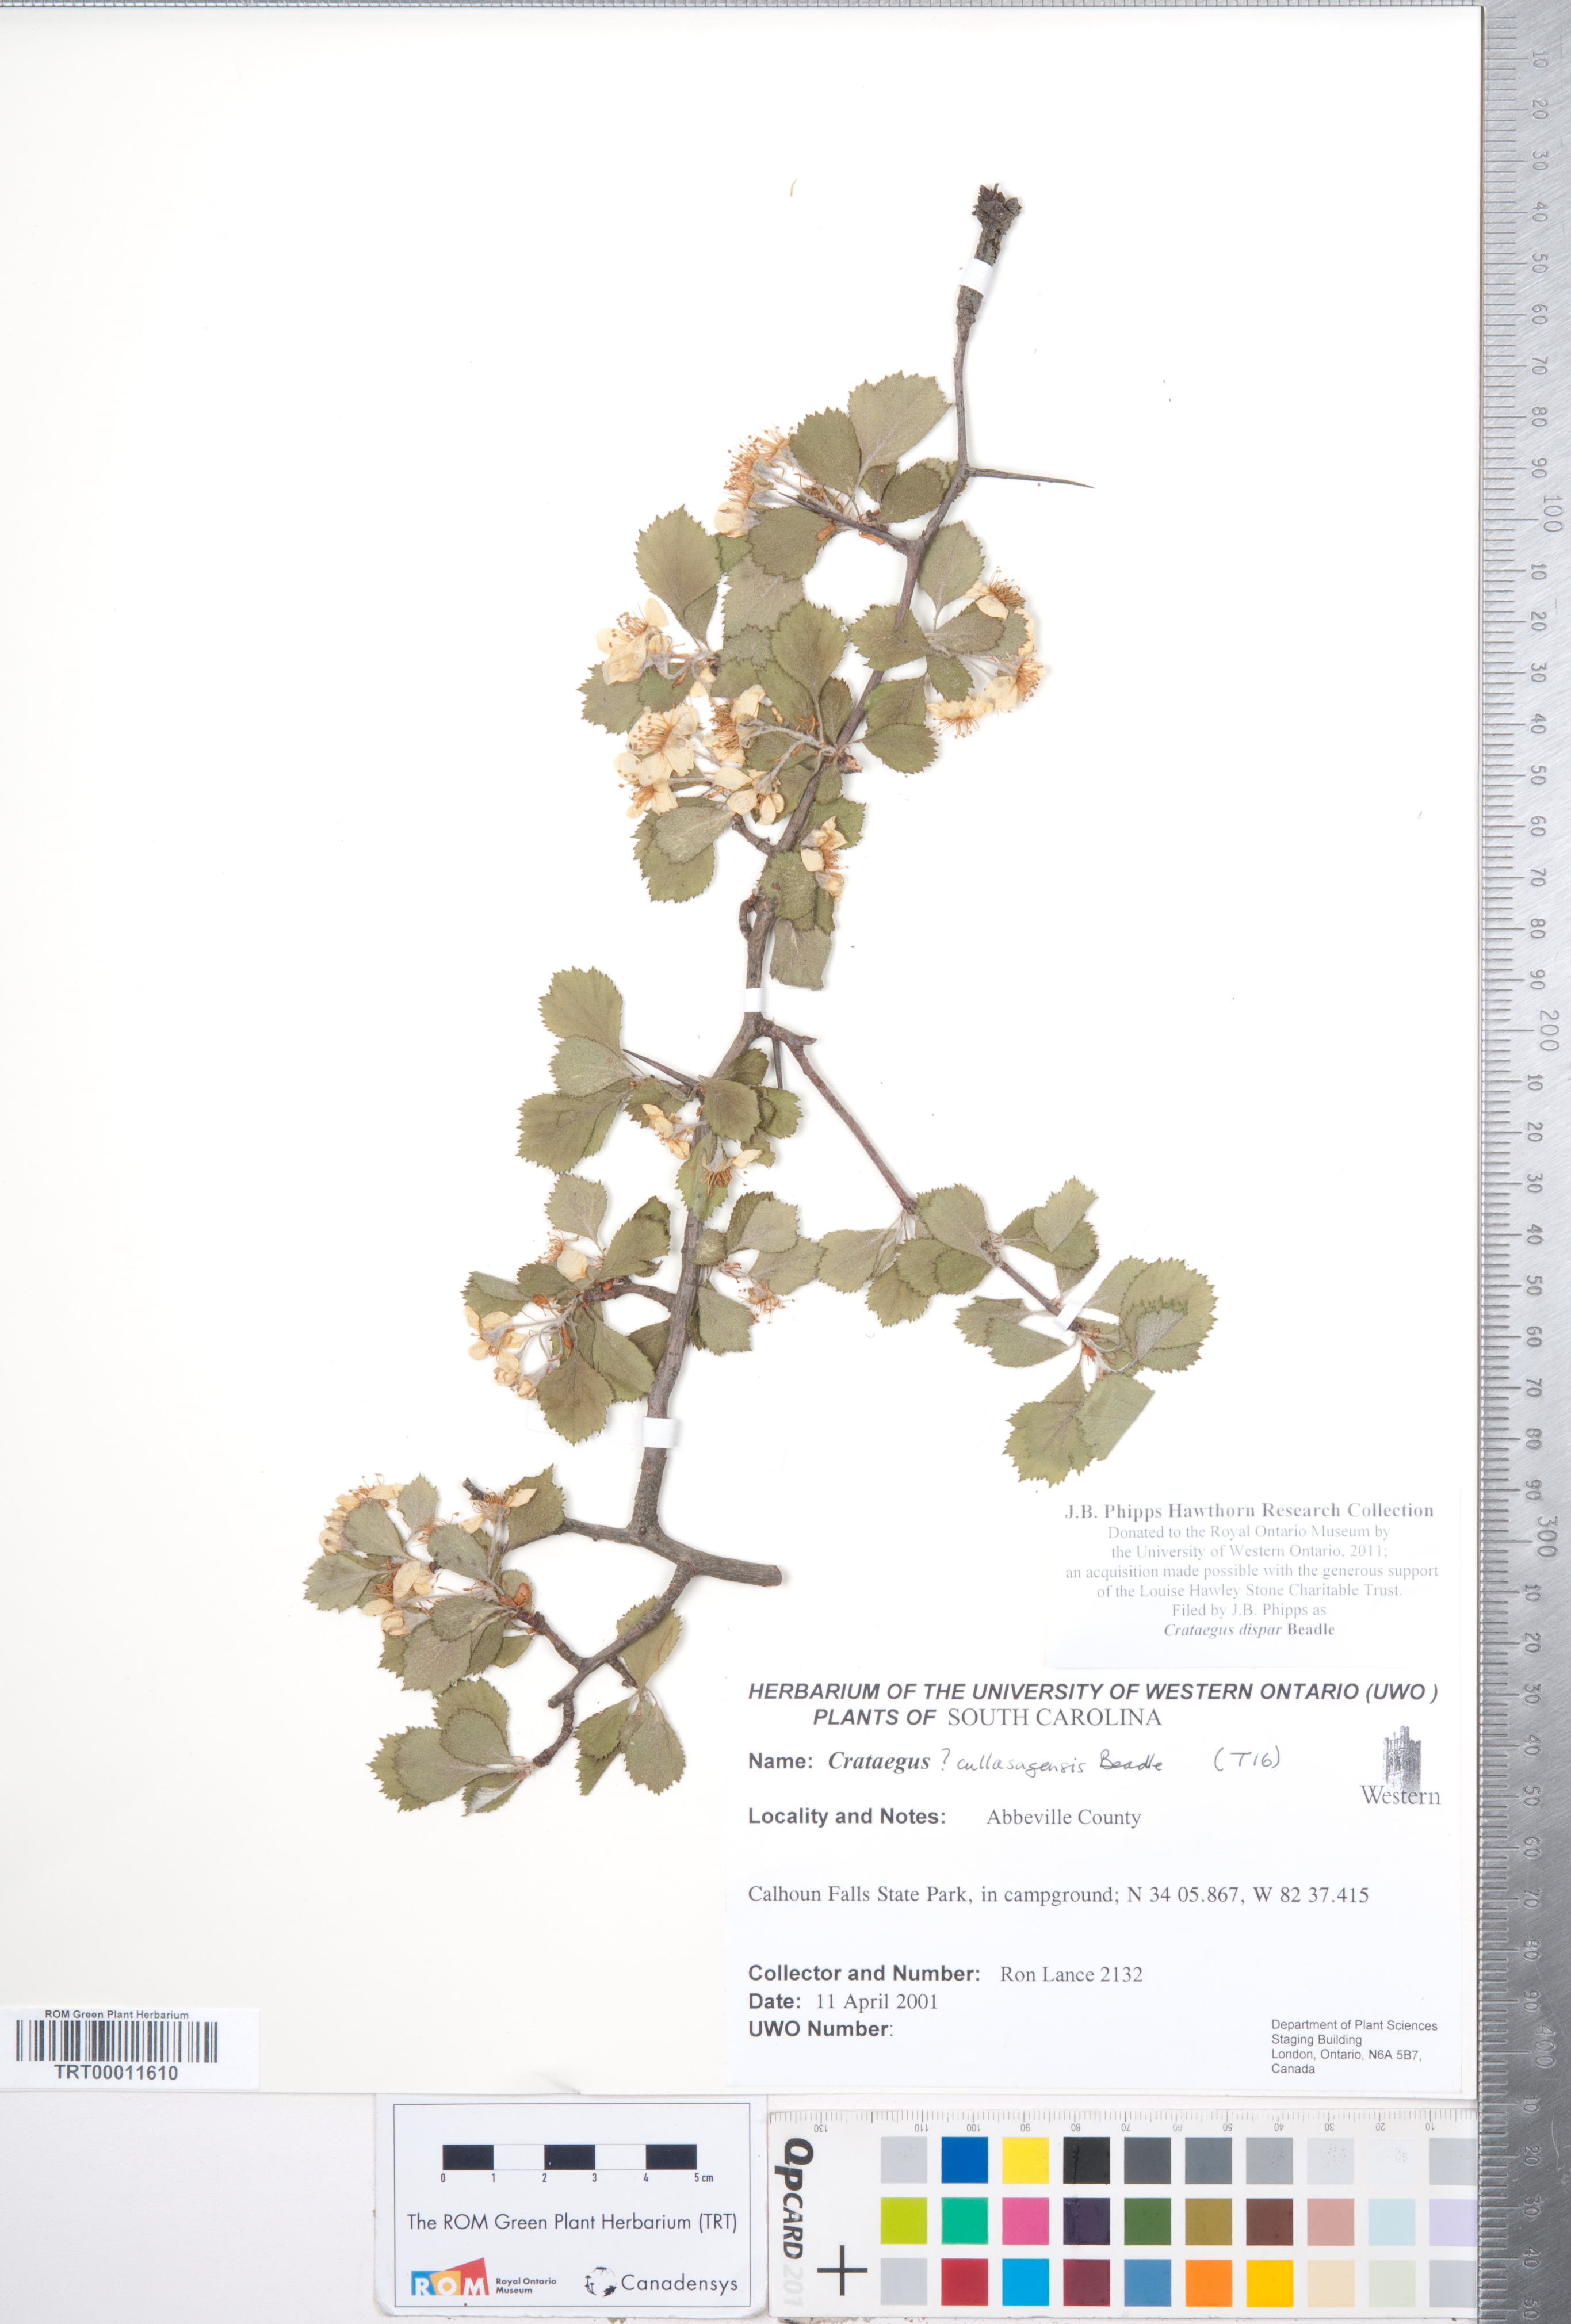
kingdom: Plantae
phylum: Tracheophyta
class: Magnoliopsida
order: Rosales
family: Rosaceae
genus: Crataegus
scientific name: Crataegus dispar
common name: Aiken hawthorn
